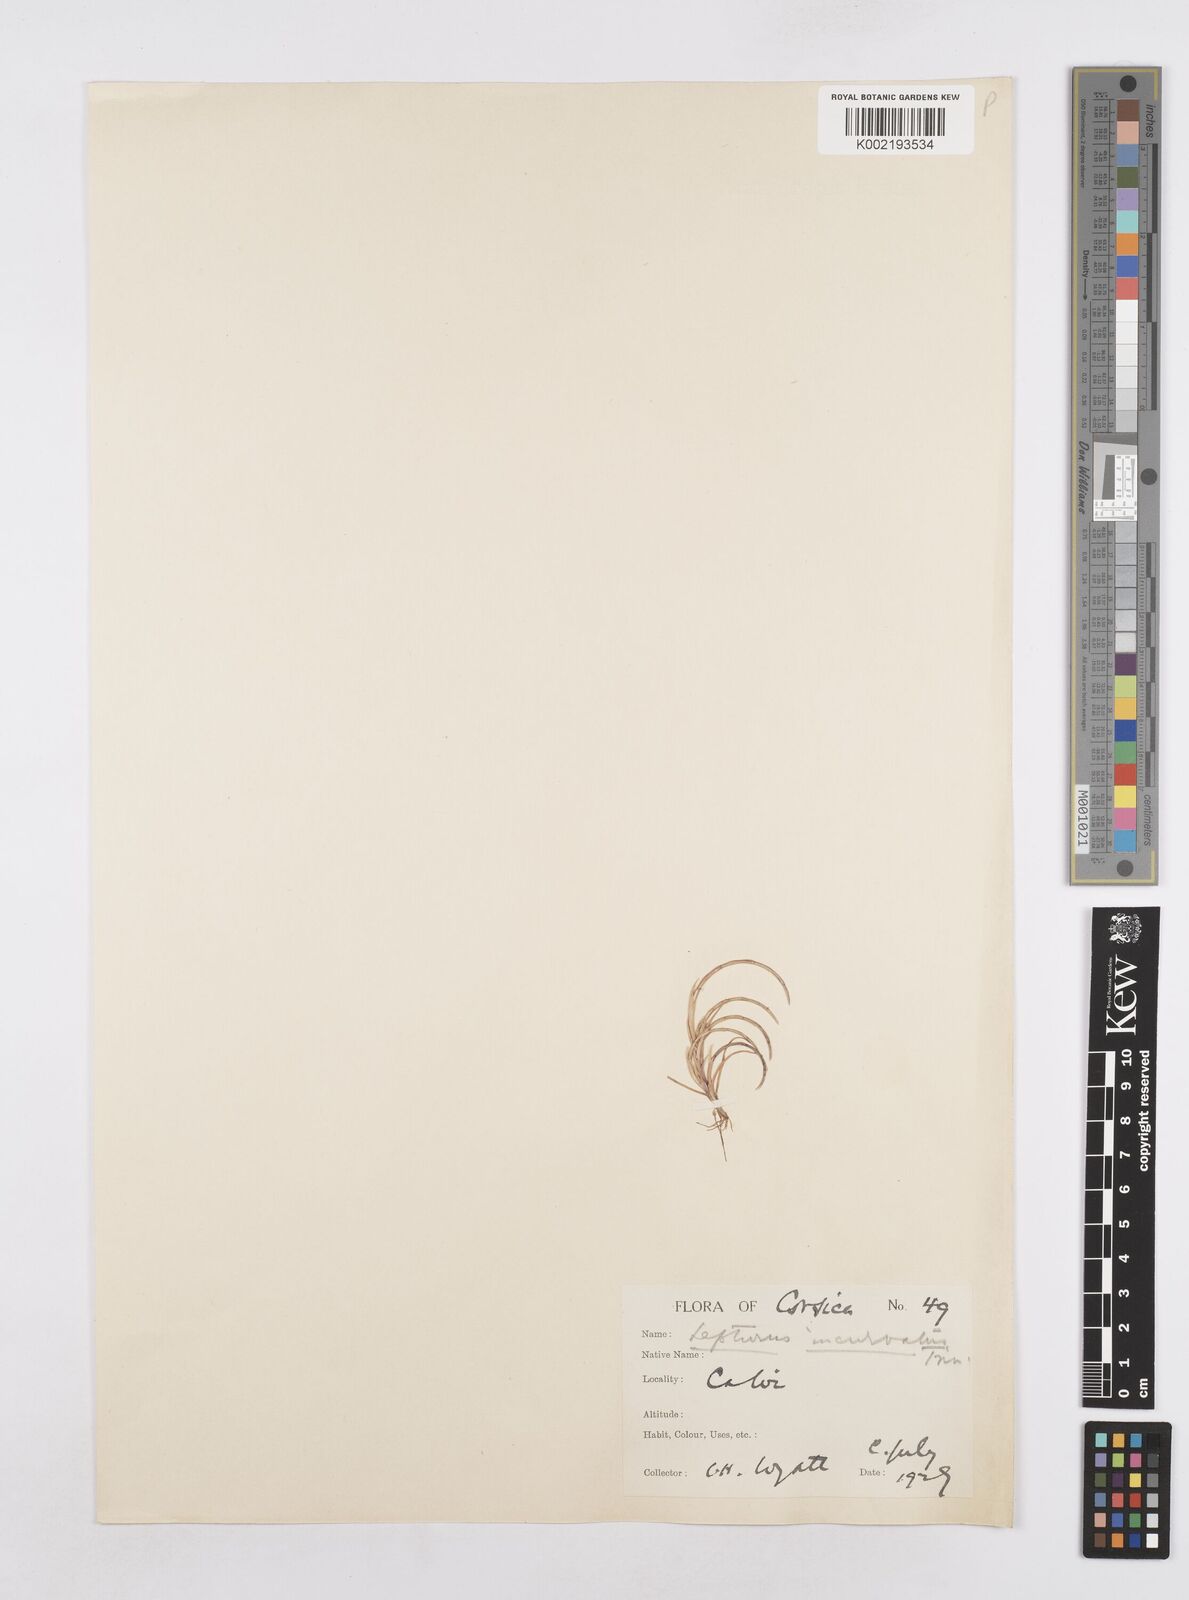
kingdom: Plantae
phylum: Tracheophyta
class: Liliopsida
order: Poales
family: Poaceae
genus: Parapholis
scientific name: Parapholis incurva
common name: Curved sicklegrass
